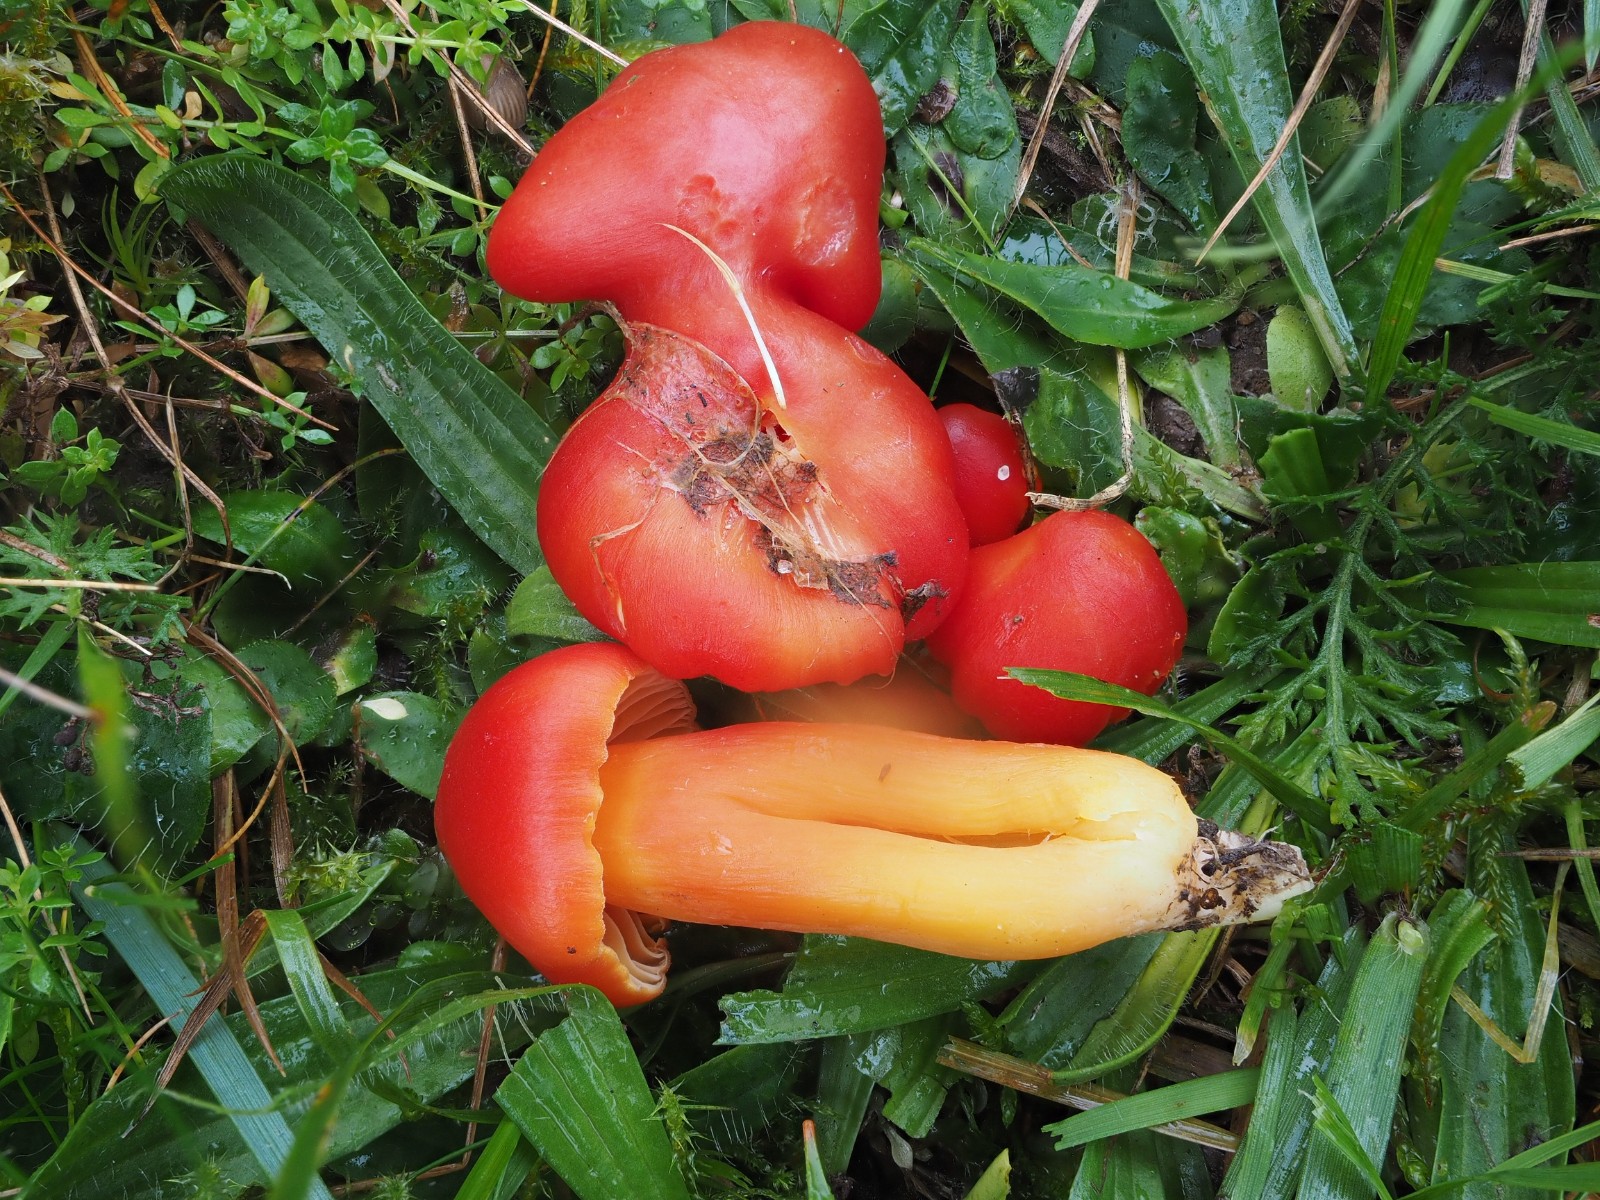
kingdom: Fungi
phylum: Basidiomycota
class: Agaricomycetes
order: Agaricales
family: Hygrophoraceae
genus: Hygrocybe
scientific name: Hygrocybe splendidissima
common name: knaldrød vokshat
